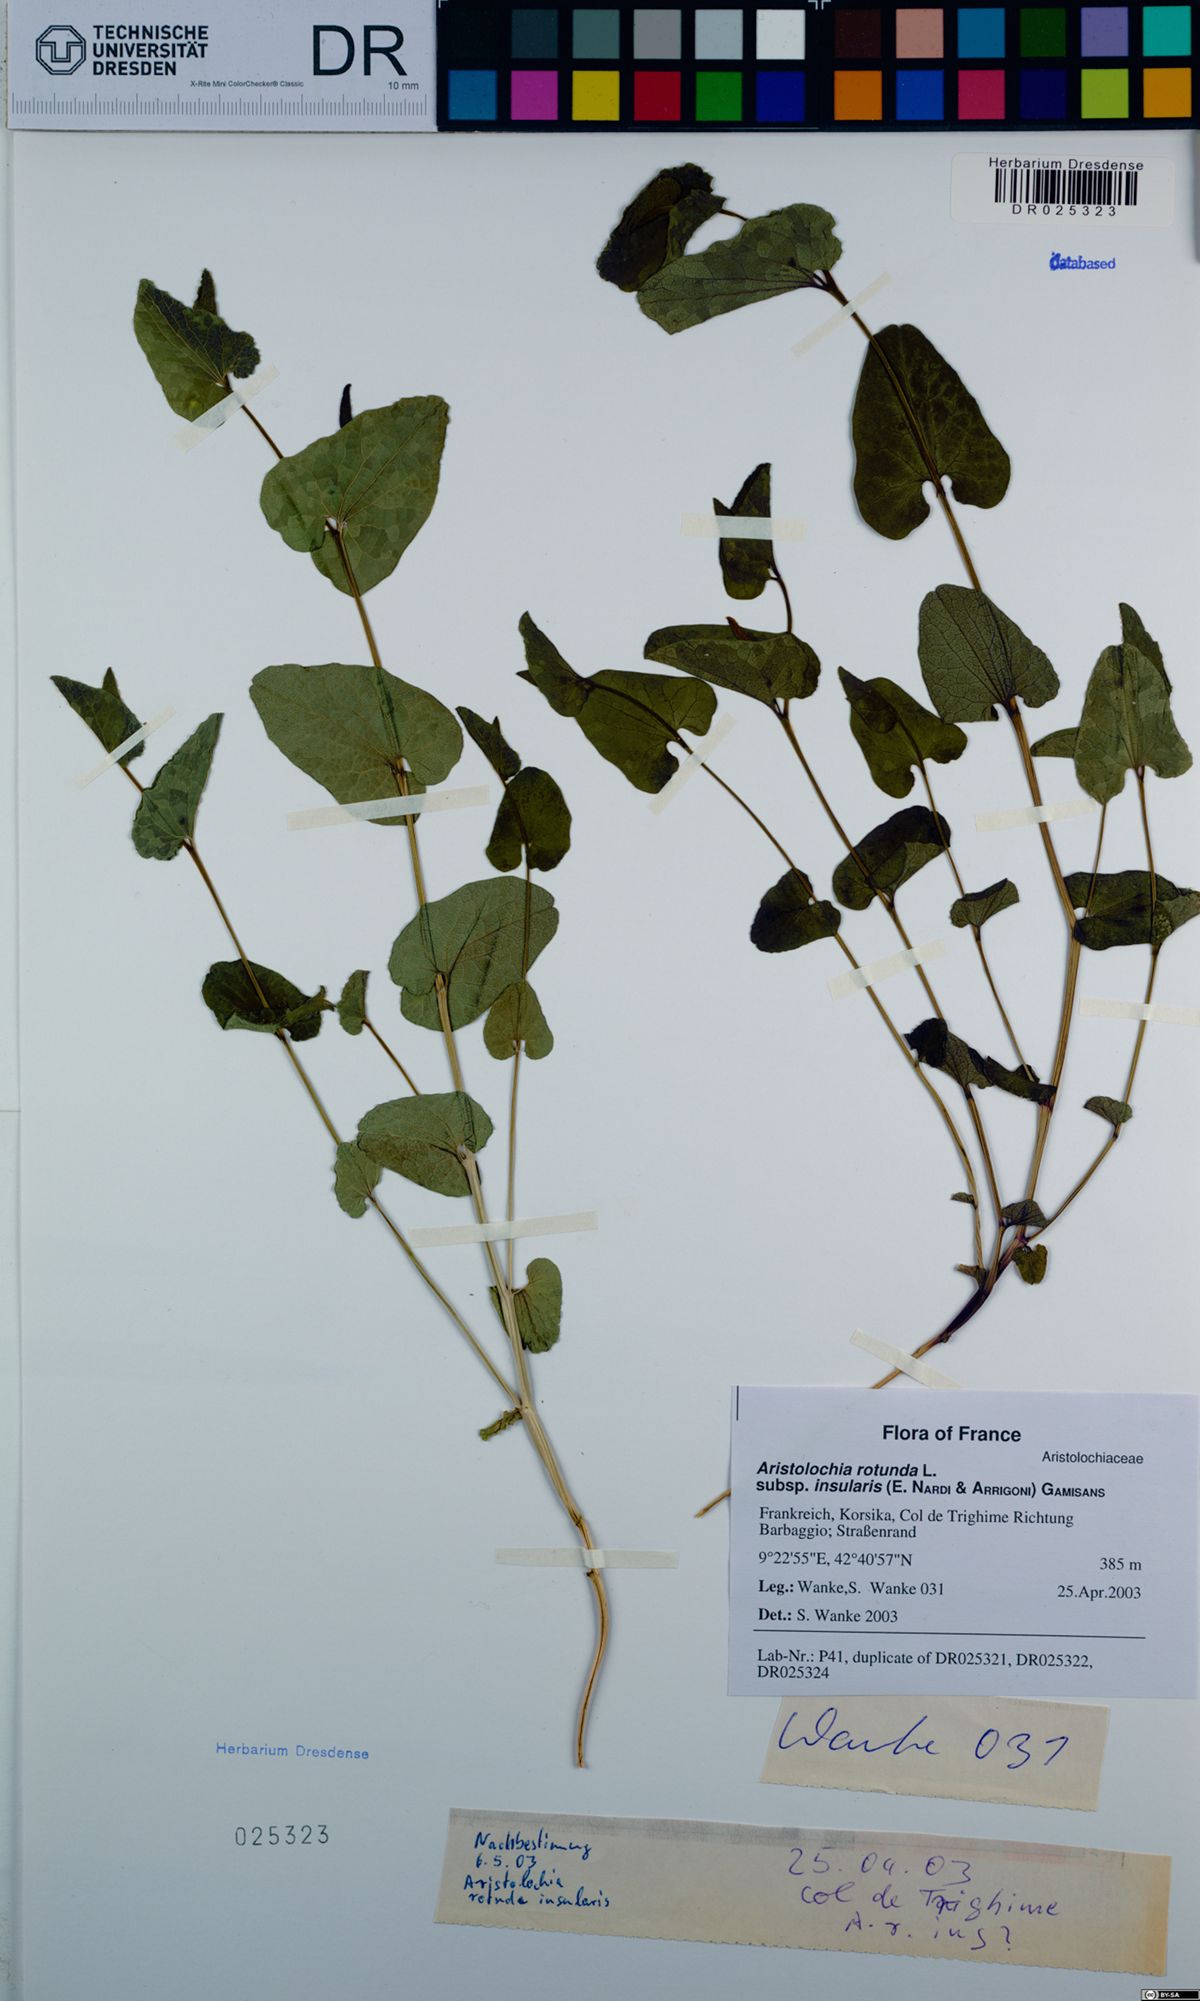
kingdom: Plantae
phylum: Tracheophyta
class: Magnoliopsida
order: Piperales
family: Aristolochiaceae
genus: Aristolochia
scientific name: Aristolochia rotunda
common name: Smearwort
